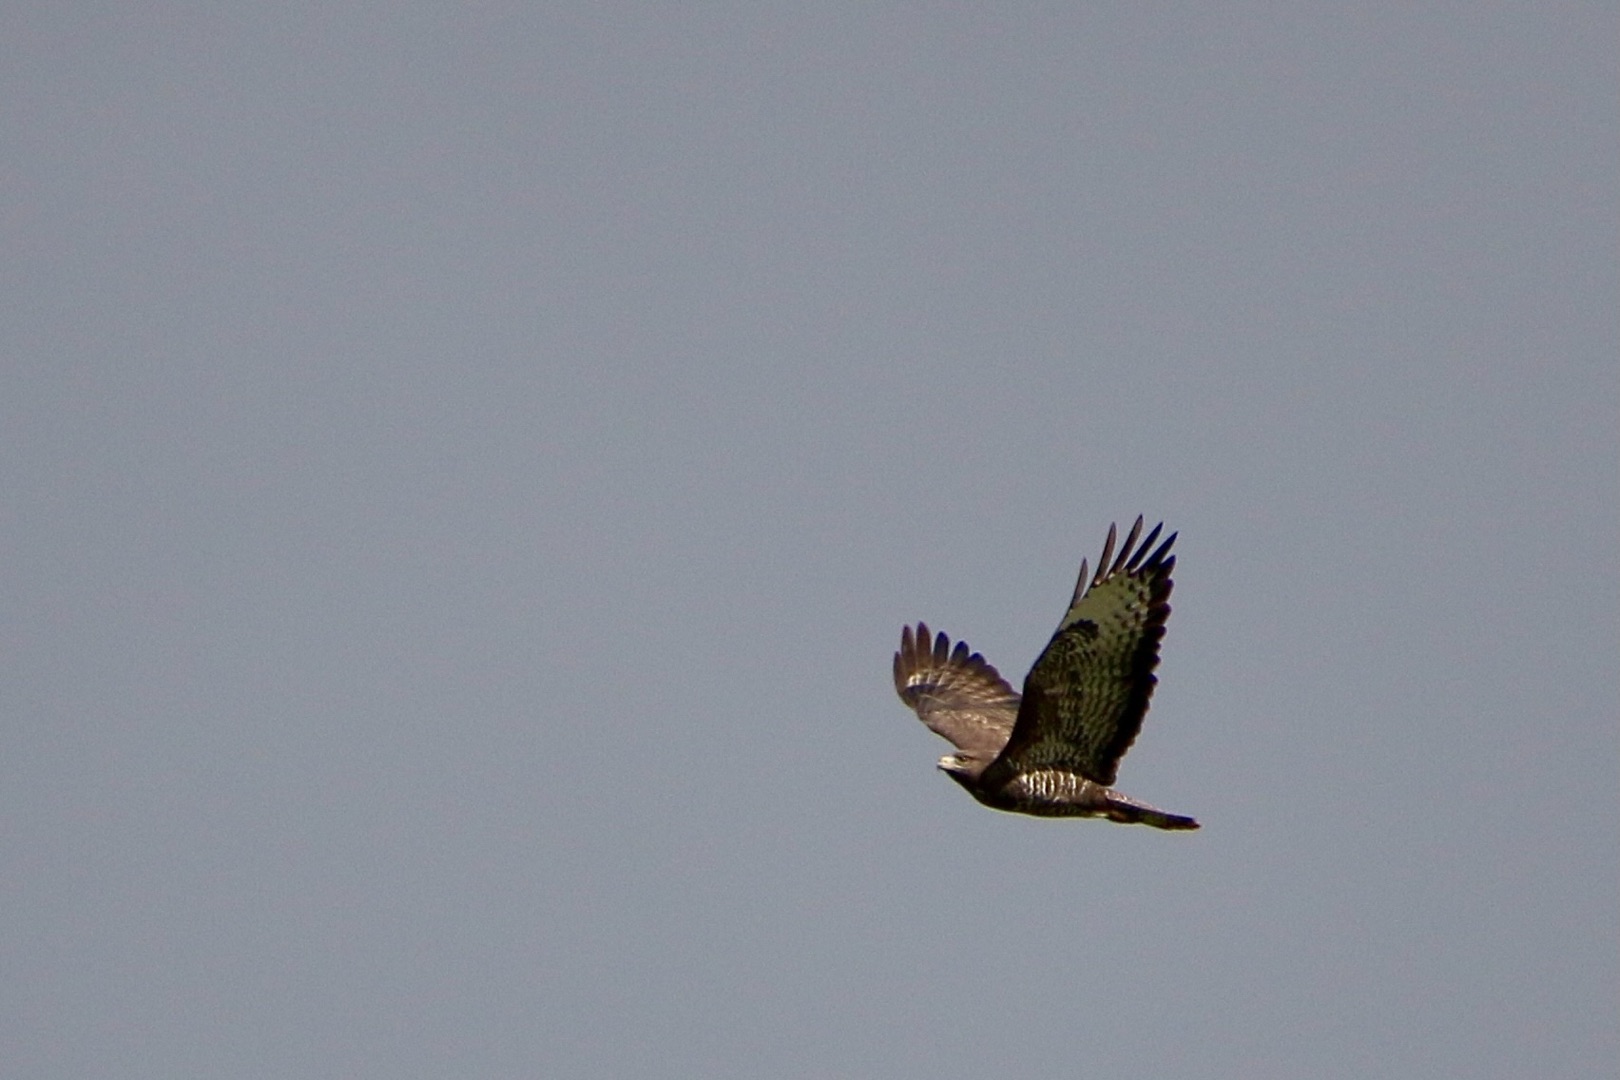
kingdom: Animalia
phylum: Chordata
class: Aves
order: Accipitriformes
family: Accipitridae
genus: Buteo
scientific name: Buteo buteo
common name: Musvåge
